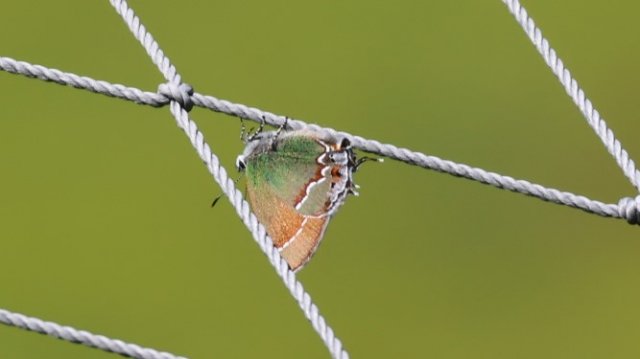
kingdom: Animalia
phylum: Arthropoda
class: Insecta
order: Lepidoptera
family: Lycaenidae
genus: Mitoura
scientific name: Mitoura gryneus
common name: Juniper Hairstreak
